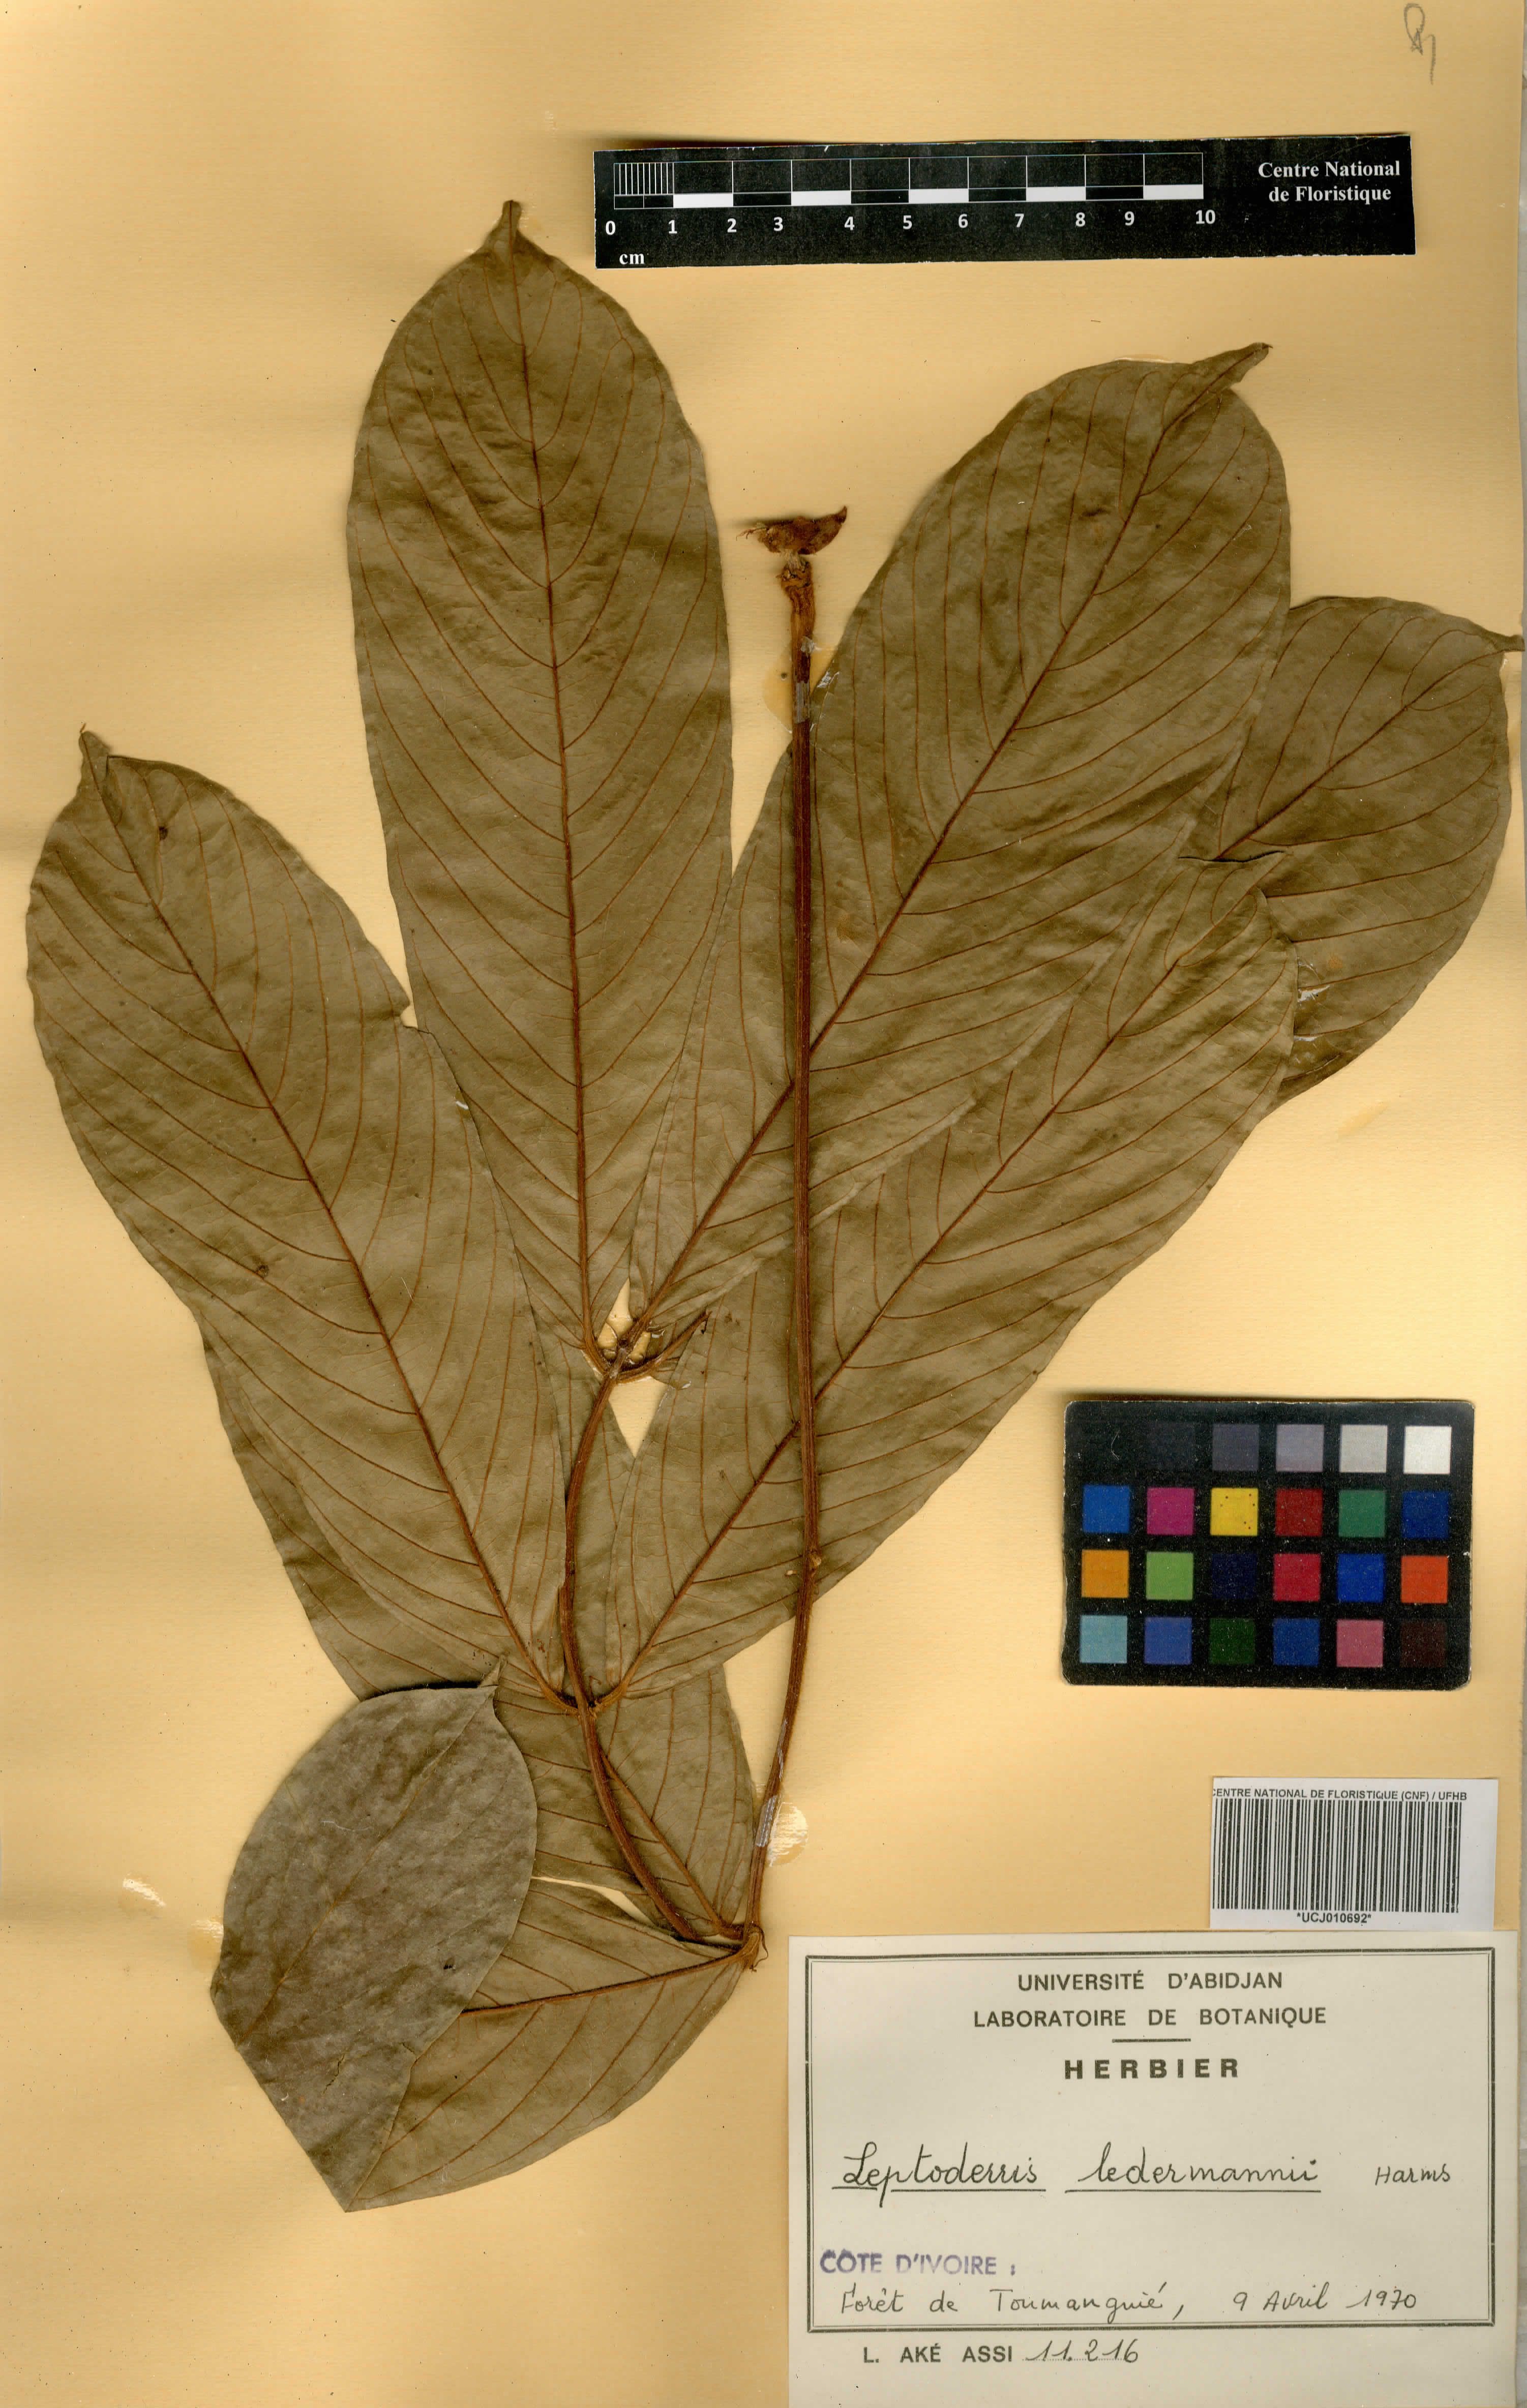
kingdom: Plantae
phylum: Tracheophyta
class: Magnoliopsida
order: Fabales
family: Fabaceae
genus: Leptoderris
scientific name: Leptoderris ledermannii
